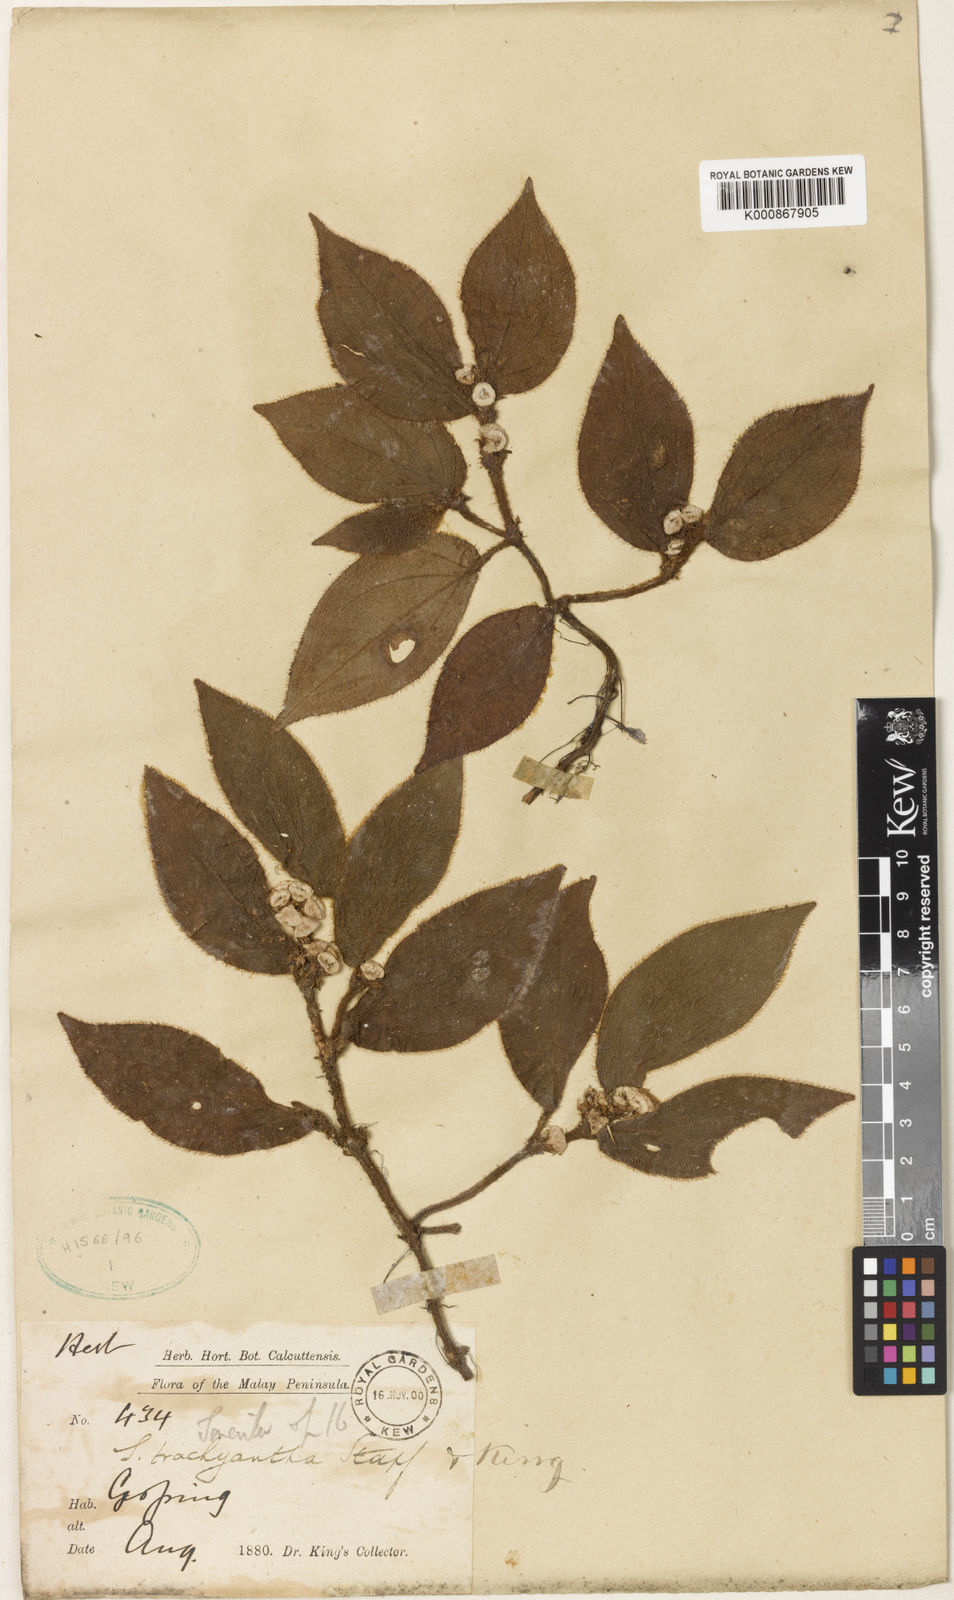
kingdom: Plantae
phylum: Tracheophyta
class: Magnoliopsida
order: Myrtales
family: Melastomataceae
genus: Sonerila
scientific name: Sonerila moluccana
